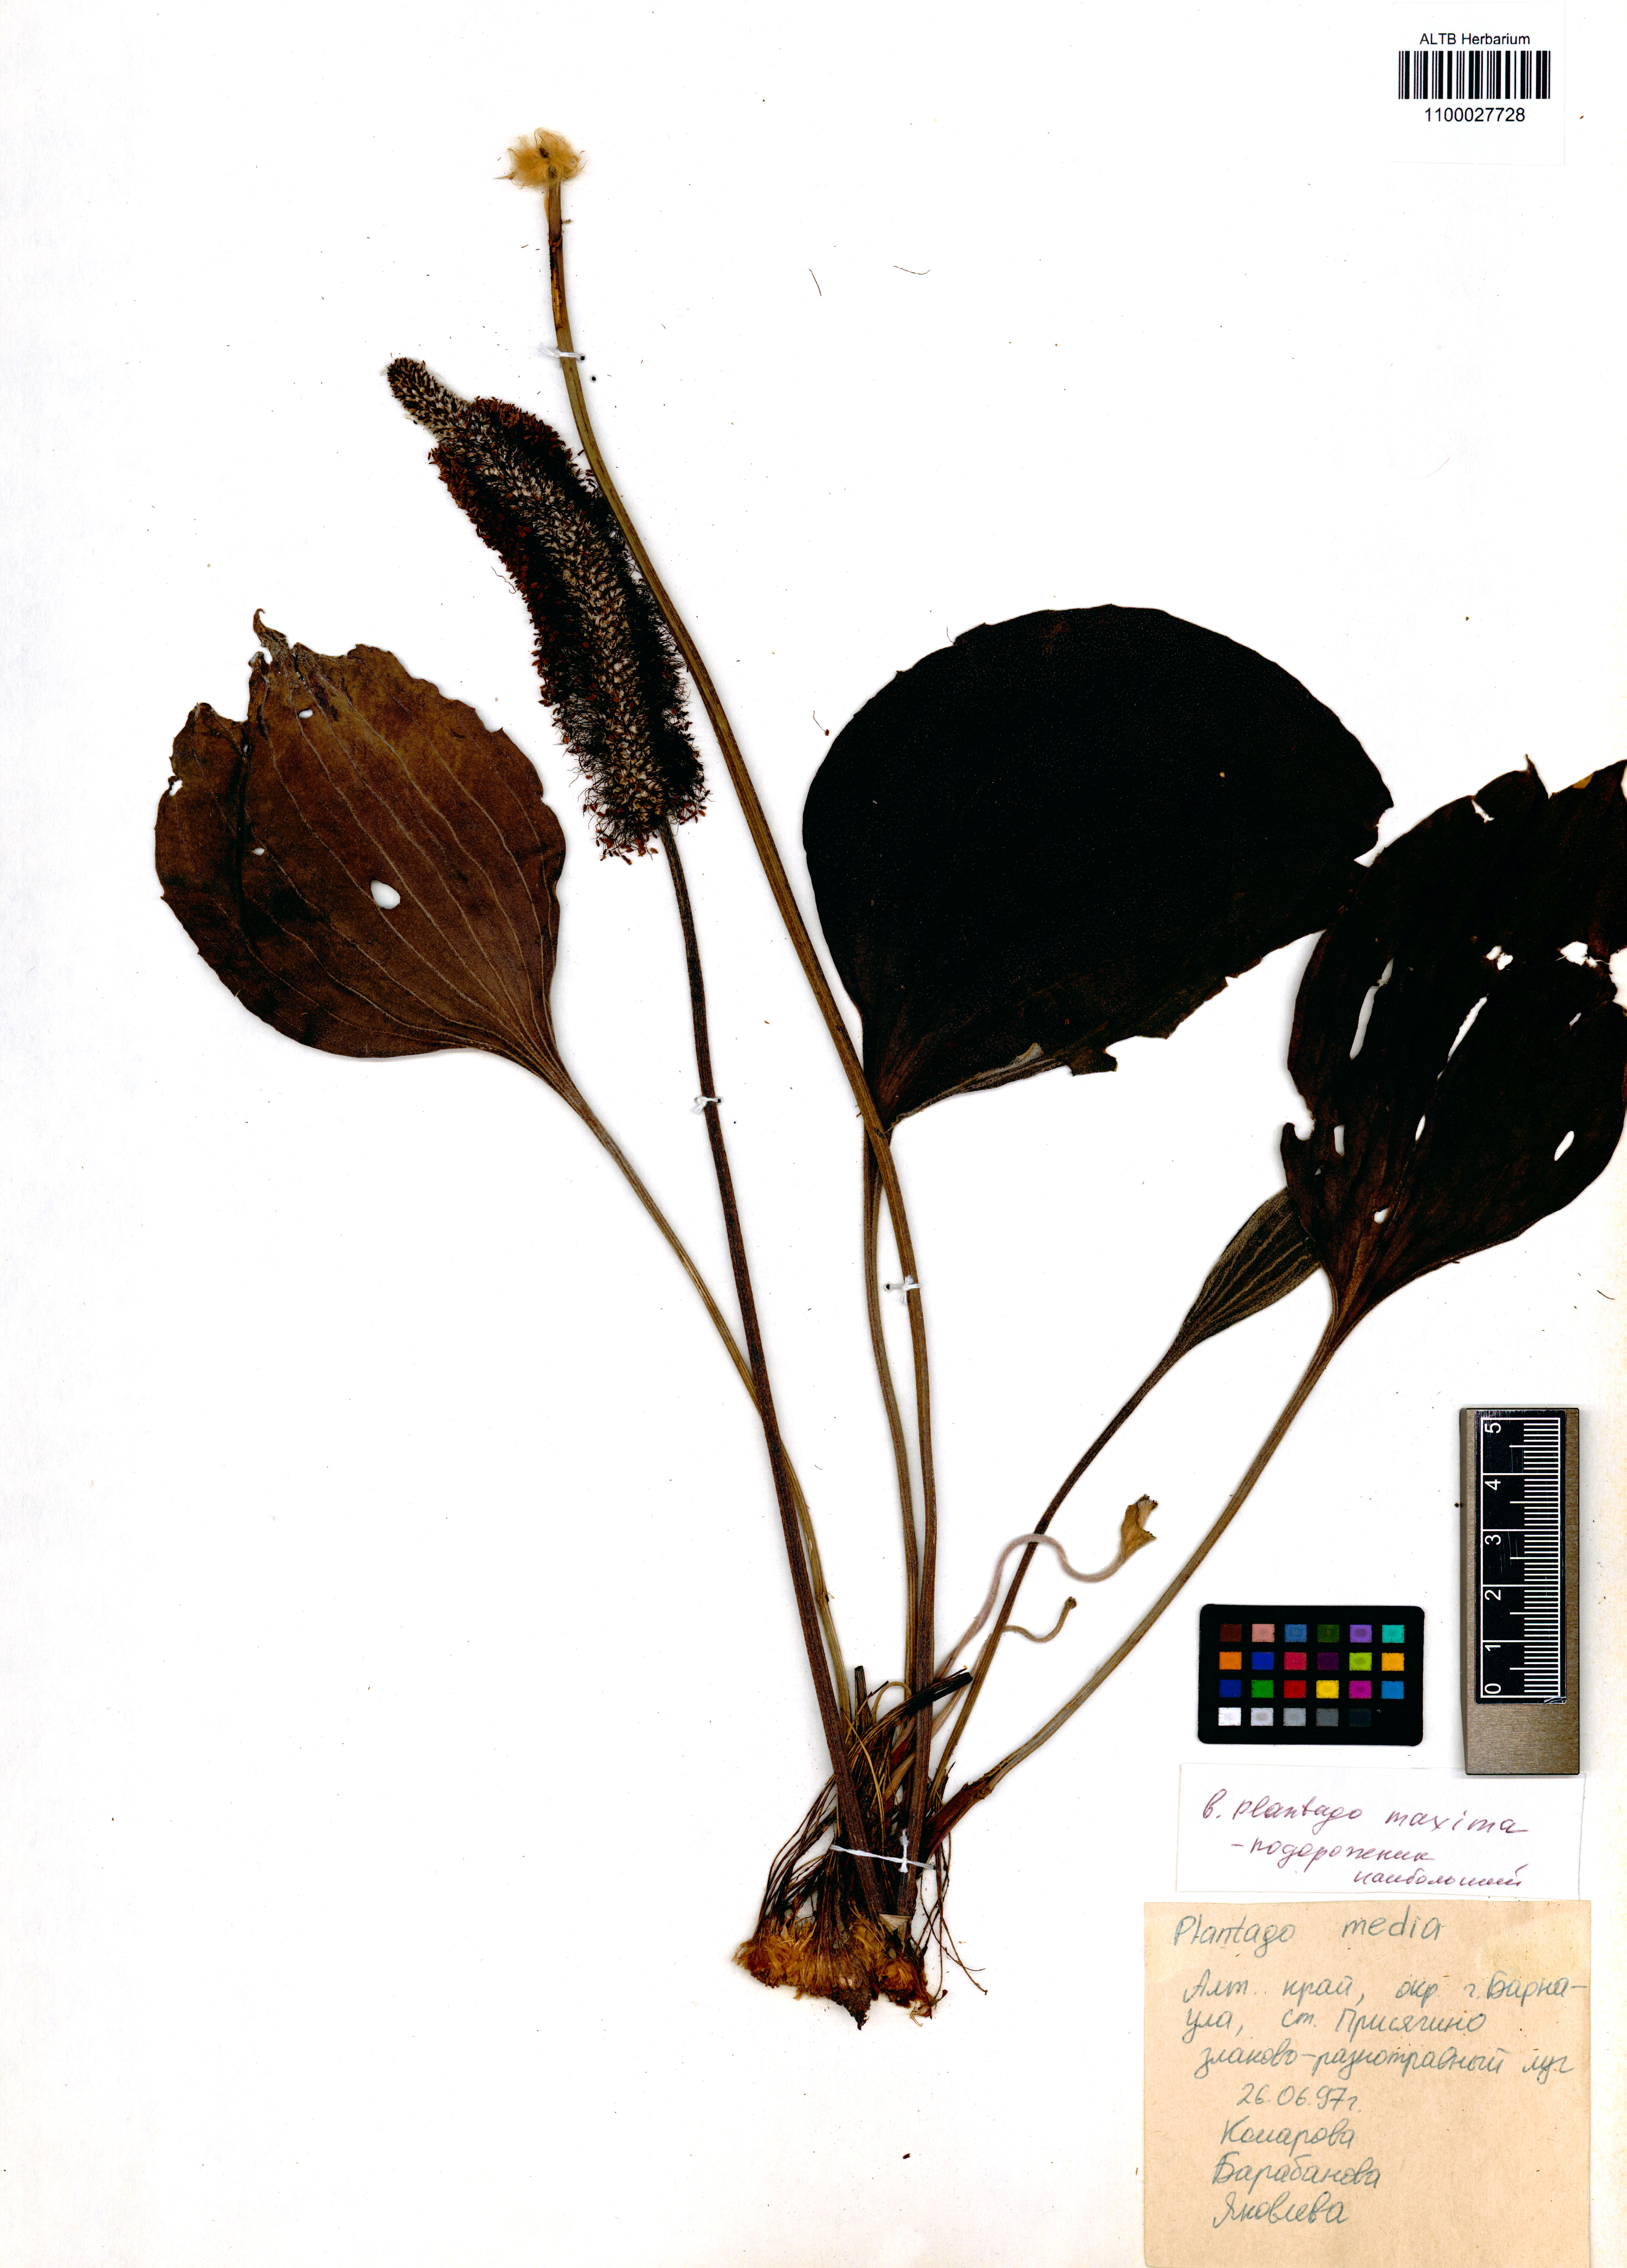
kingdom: Plantae
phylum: Tracheophyta
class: Magnoliopsida
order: Lamiales
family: Plantaginaceae
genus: Plantago
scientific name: Plantago maxima
